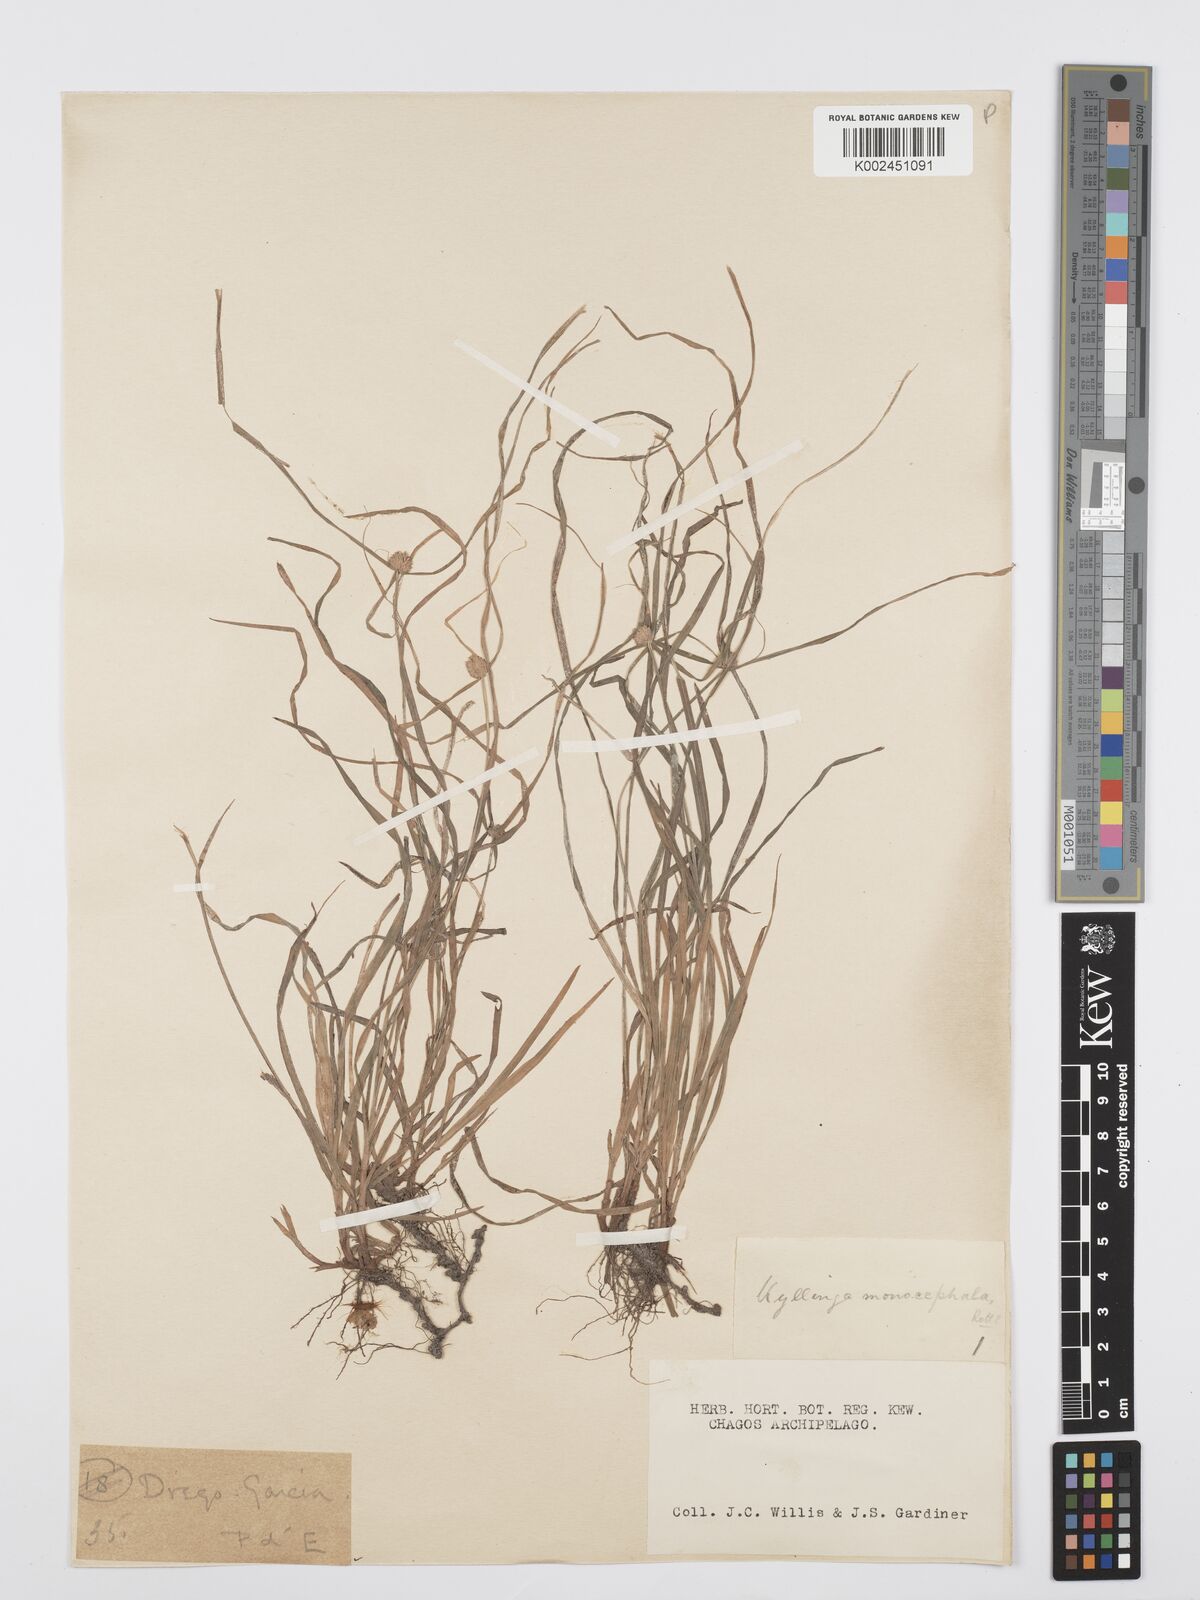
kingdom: Plantae
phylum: Tracheophyta
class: Liliopsida
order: Poales
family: Cyperaceae
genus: Cyperus
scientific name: Cyperus nemoralis
